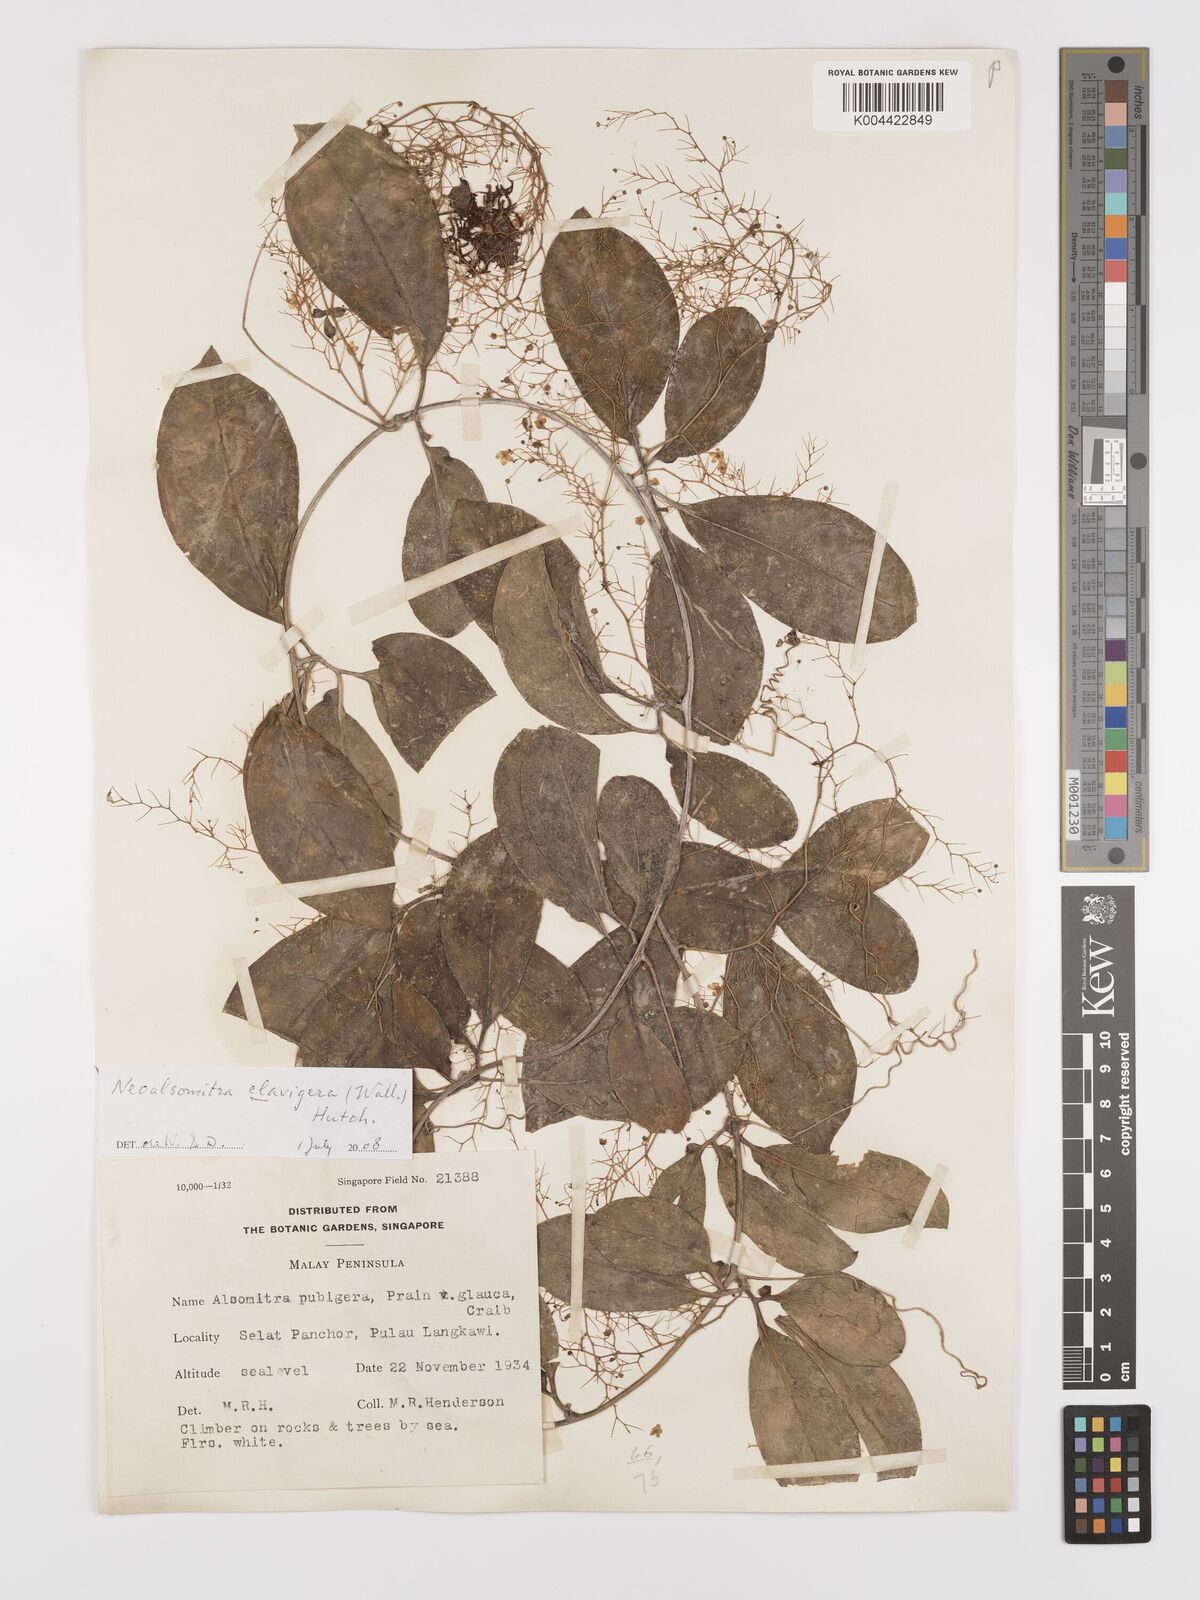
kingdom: Plantae
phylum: Tracheophyta
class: Magnoliopsida
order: Cucurbitales
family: Cucurbitaceae
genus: Neoalsomitra
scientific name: Neoalsomitra clavigera
